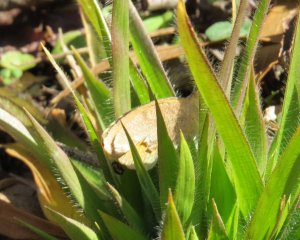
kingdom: Animalia
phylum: Arthropoda
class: Insecta
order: Lepidoptera
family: Pieridae
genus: Abaeis
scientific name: Abaeis nicippe
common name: Sleepy Orange
